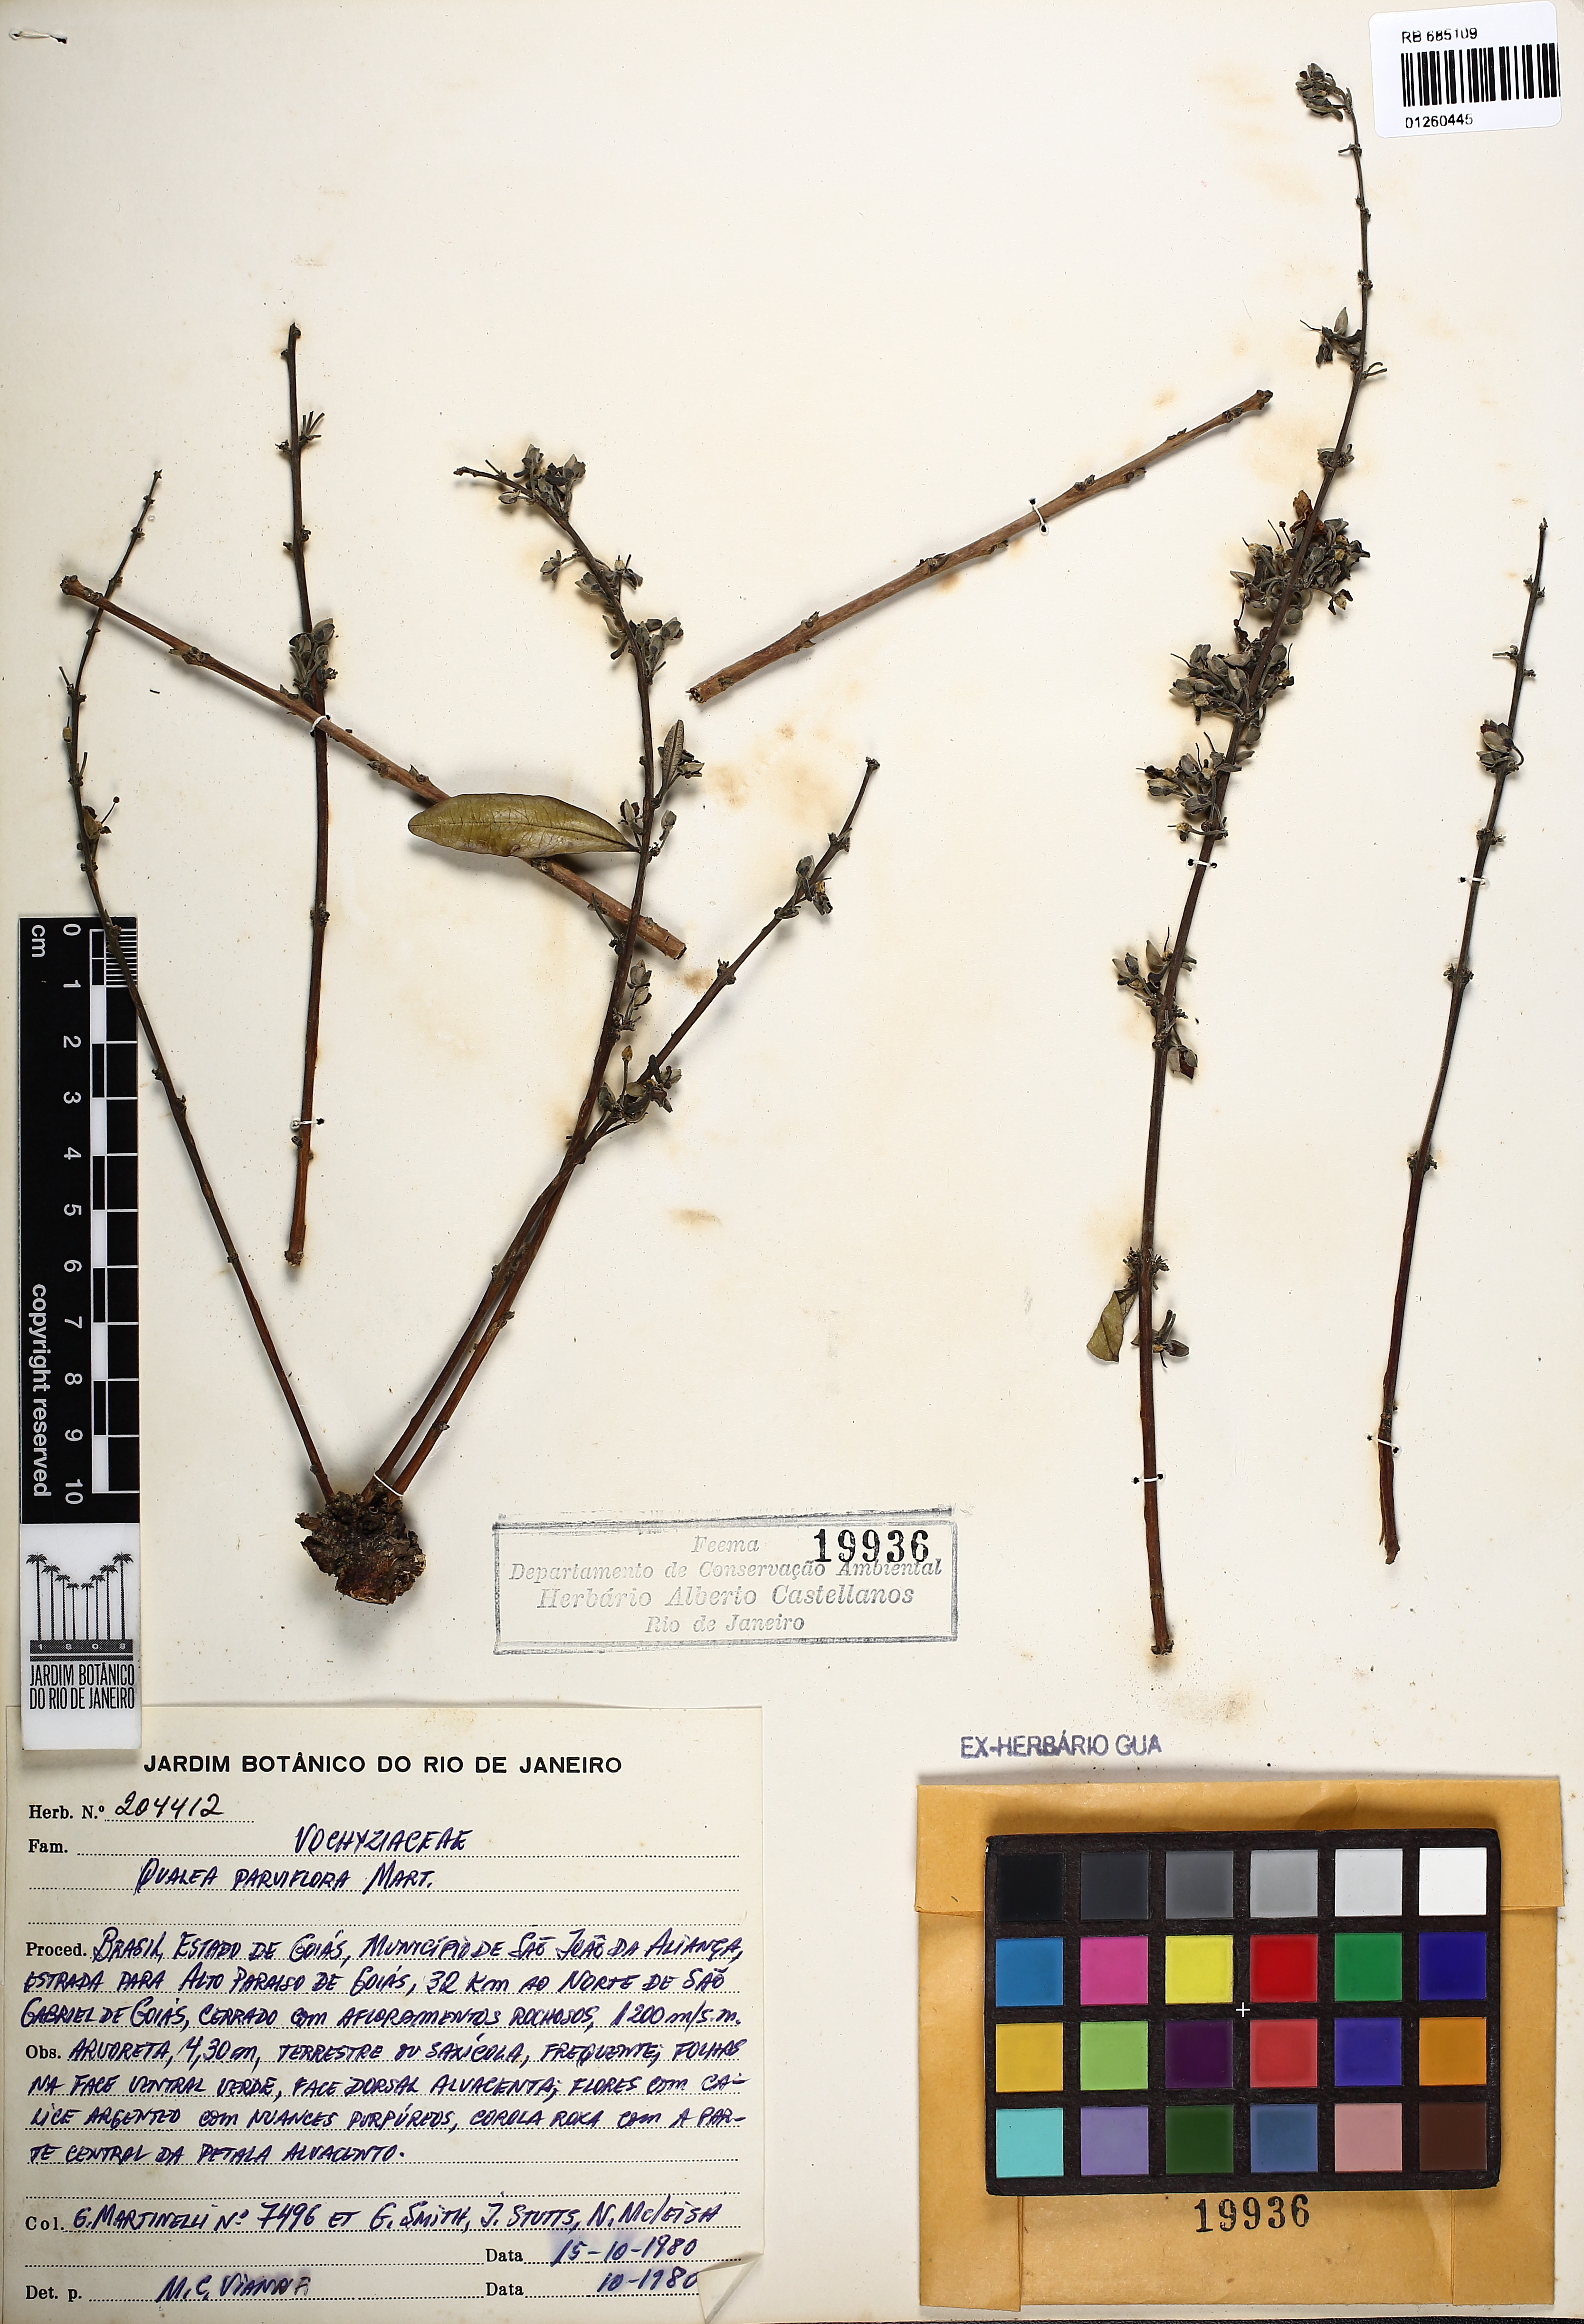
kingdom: Plantae
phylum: Tracheophyta
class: Magnoliopsida
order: Myrtales
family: Vochysiaceae
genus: Qualea
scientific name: Qualea parviflora
